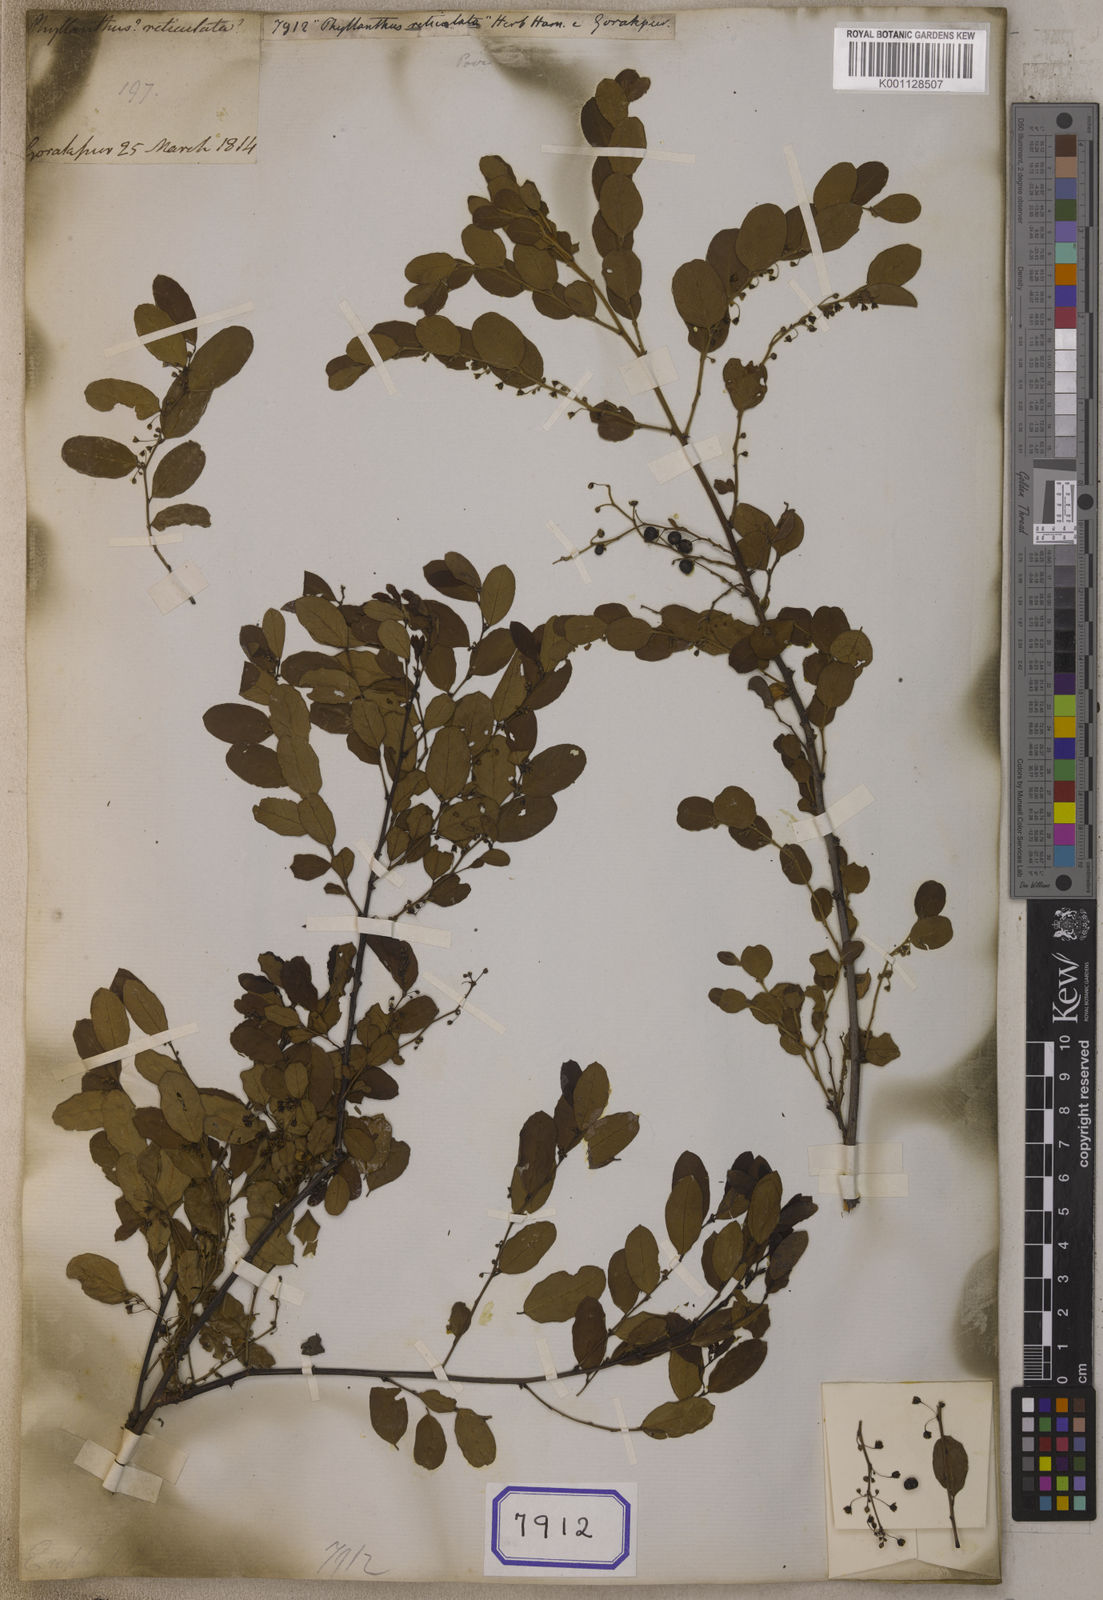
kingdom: Plantae
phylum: Tracheophyta
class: Magnoliopsida
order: Malpighiales
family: Euphorbiaceae
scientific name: Euphorbiaceae
